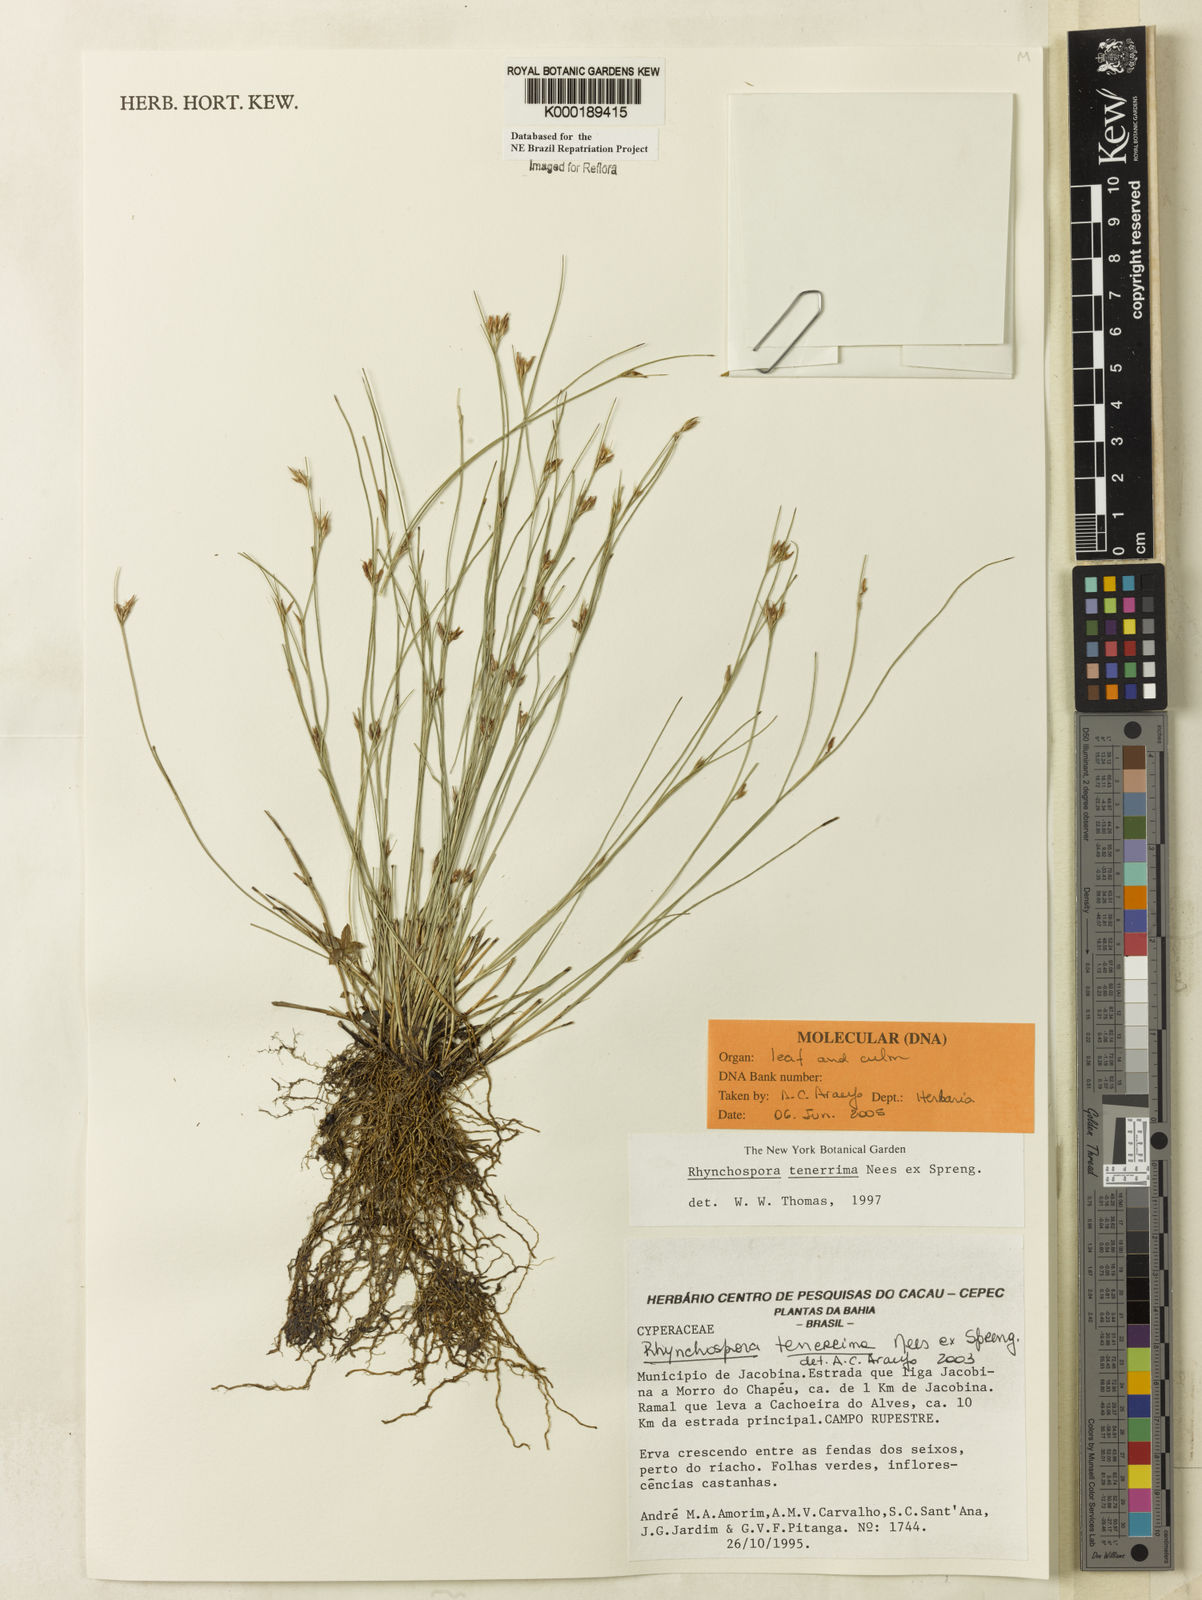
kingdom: Plantae
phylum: Tracheophyta
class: Liliopsida
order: Poales
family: Cyperaceae
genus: Rhynchospora
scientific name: Rhynchospora tenerrima
